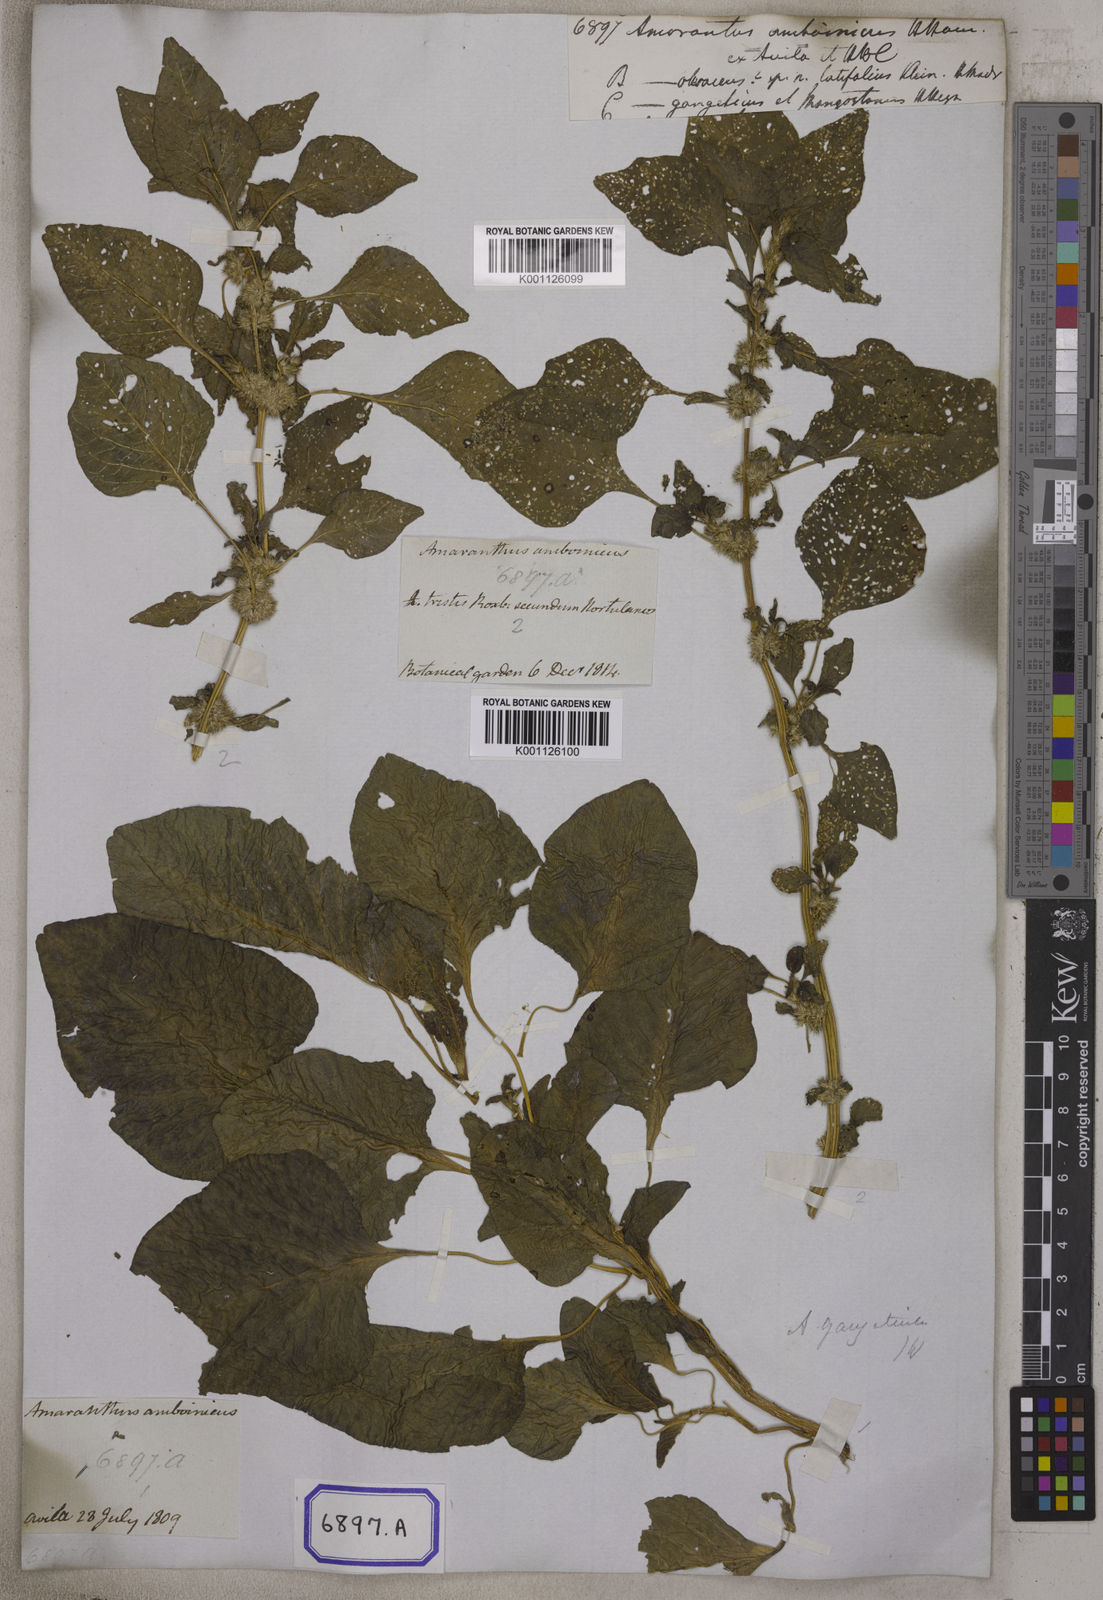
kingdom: Plantae
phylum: Tracheophyta
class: Magnoliopsida
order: Caryophyllales
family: Amaranthaceae
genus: Amaranthus
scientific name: Amaranthus
